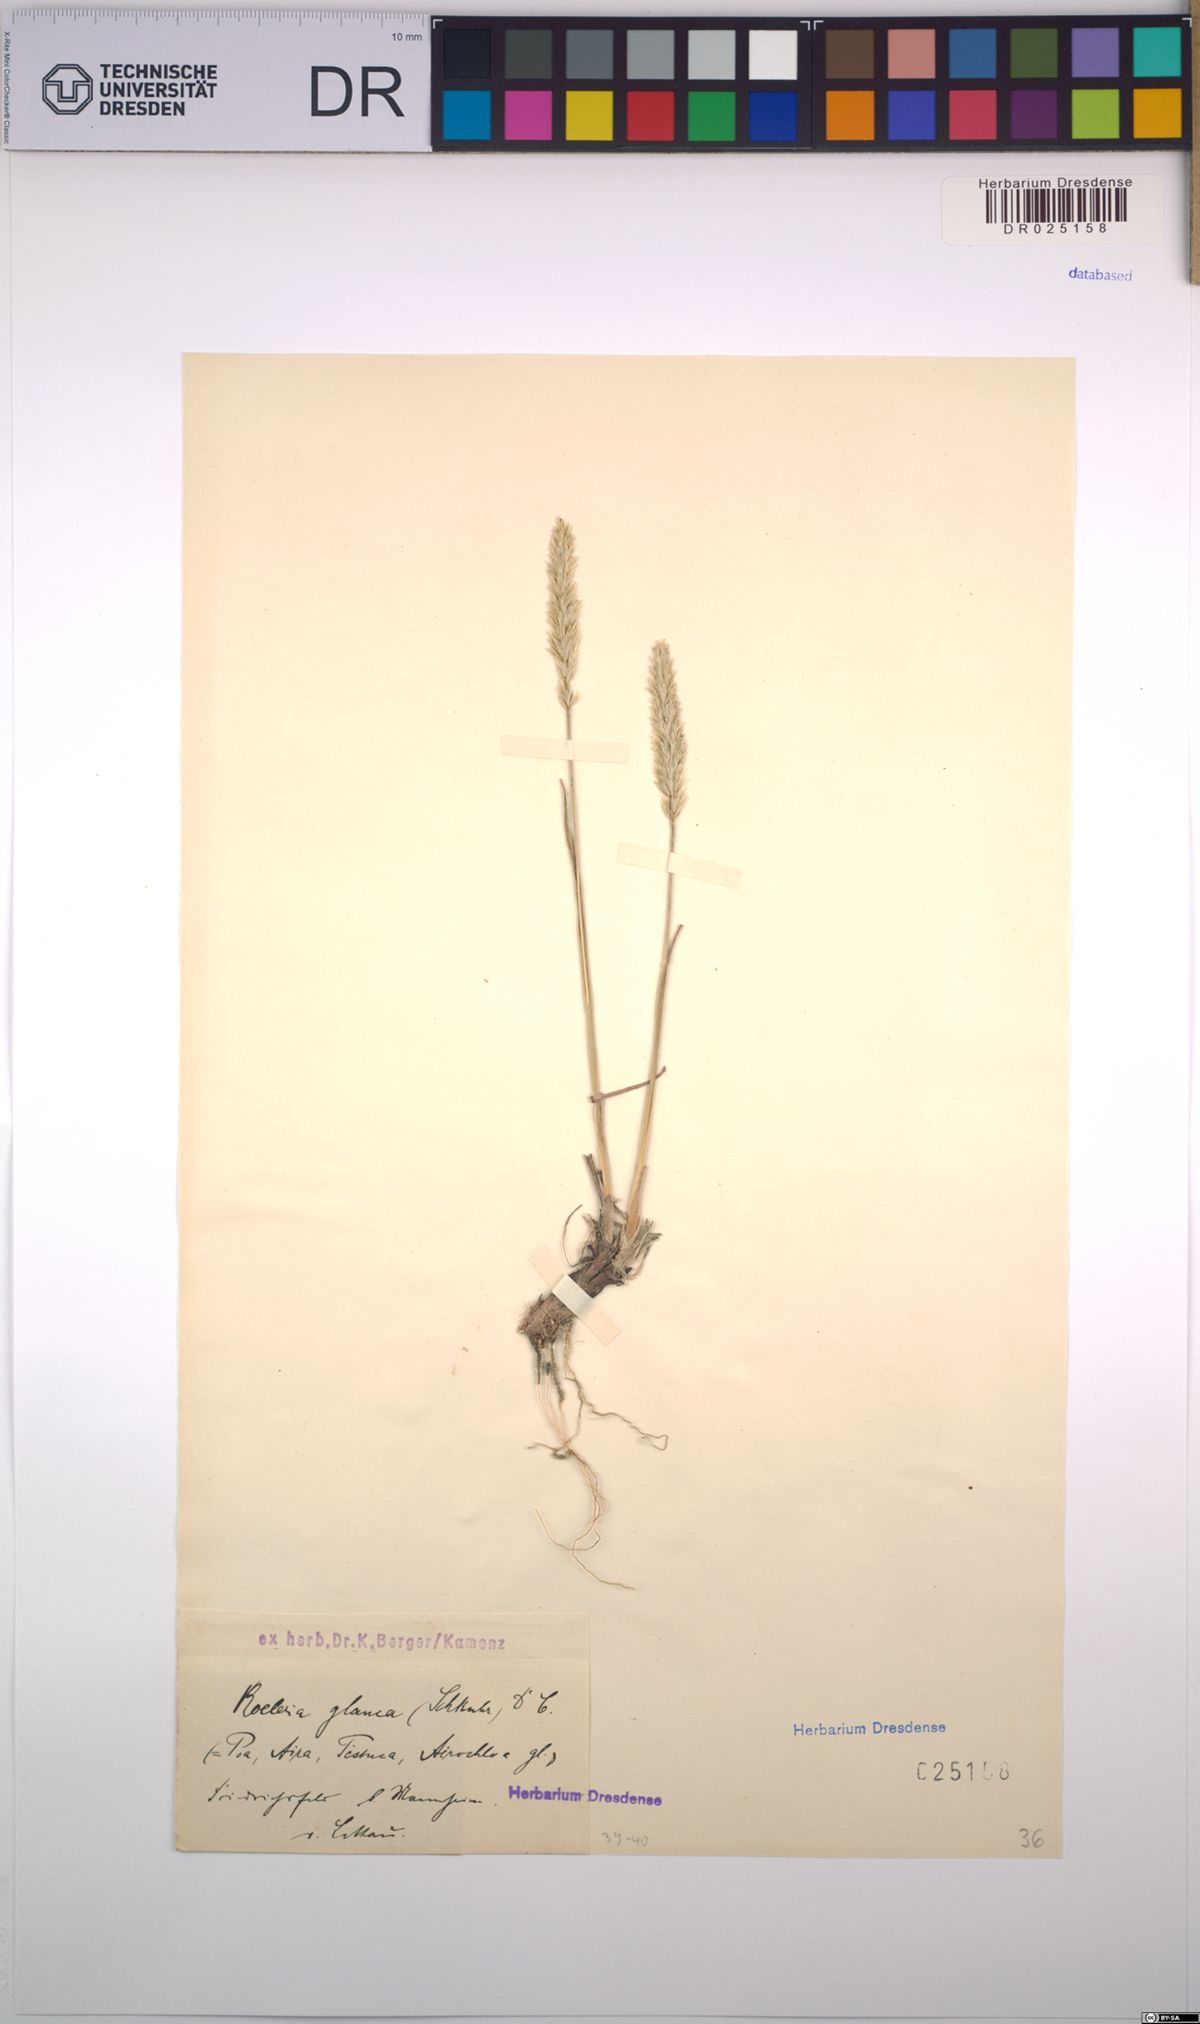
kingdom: Plantae
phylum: Tracheophyta
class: Liliopsida
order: Poales
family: Poaceae
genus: Koeleria
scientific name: Koeleria glauca
